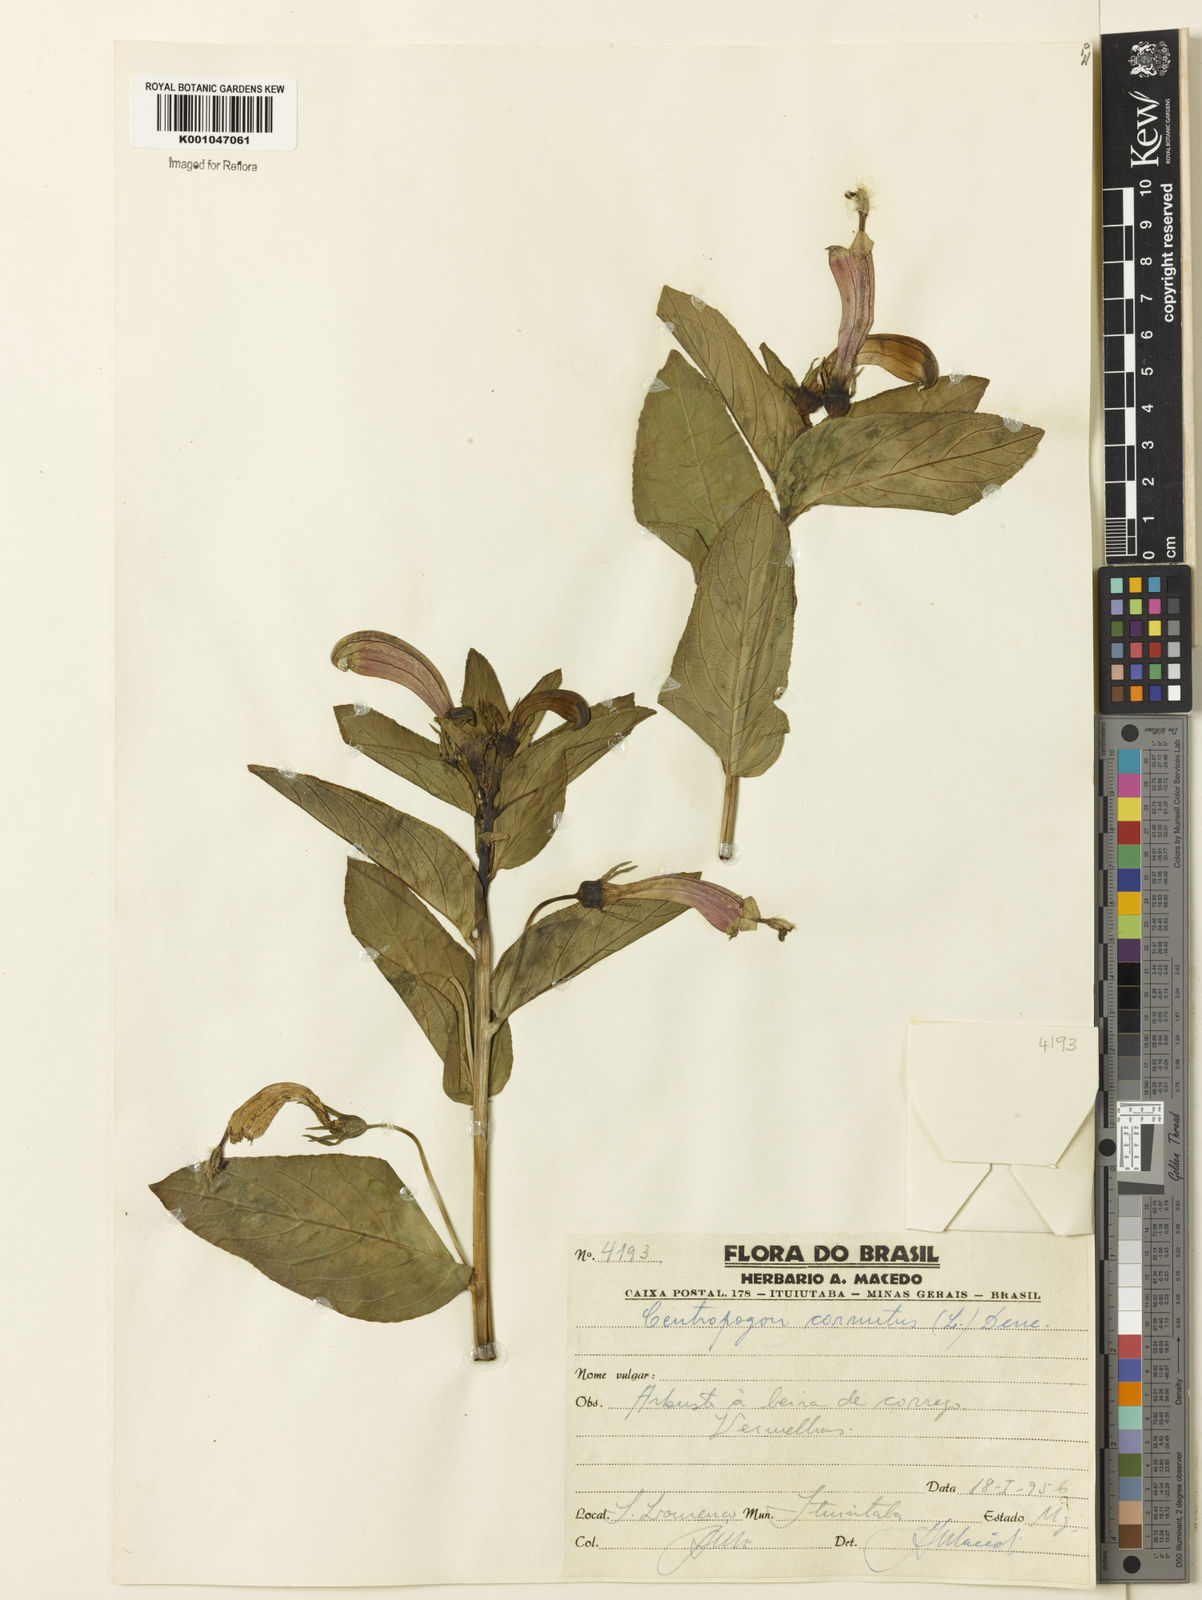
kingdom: Plantae
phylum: Tracheophyta
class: Magnoliopsida
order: Asterales
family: Campanulaceae
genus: Centropogon
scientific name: Centropogon cornutus
